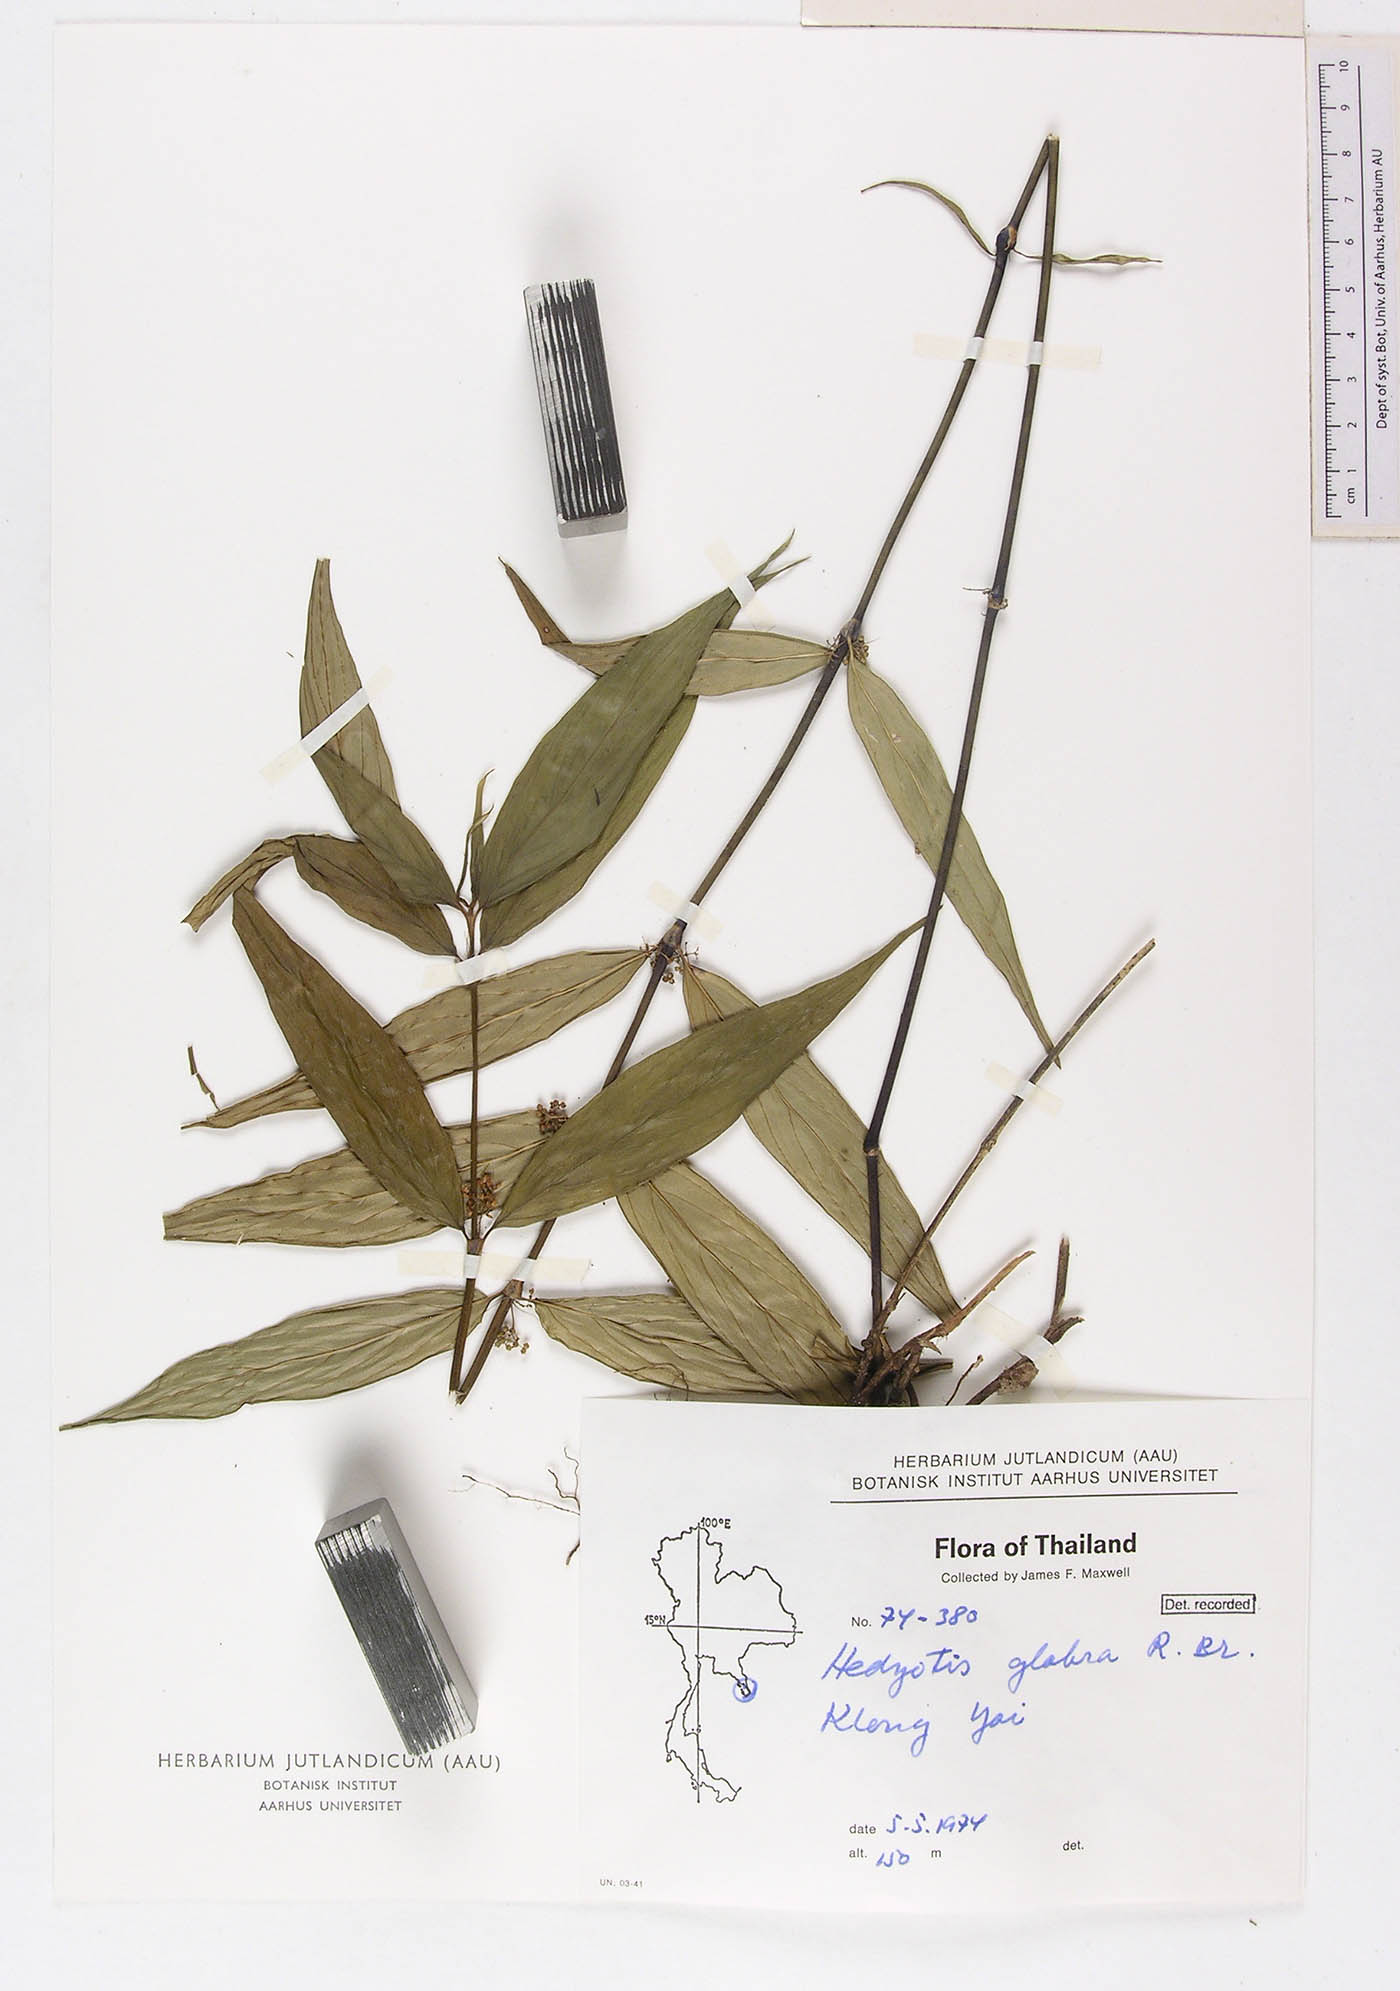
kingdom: Plantae
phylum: Tracheophyta
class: Magnoliopsida
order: Gentianales
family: Rubiaceae
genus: Exallage
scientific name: Exallage insularis
